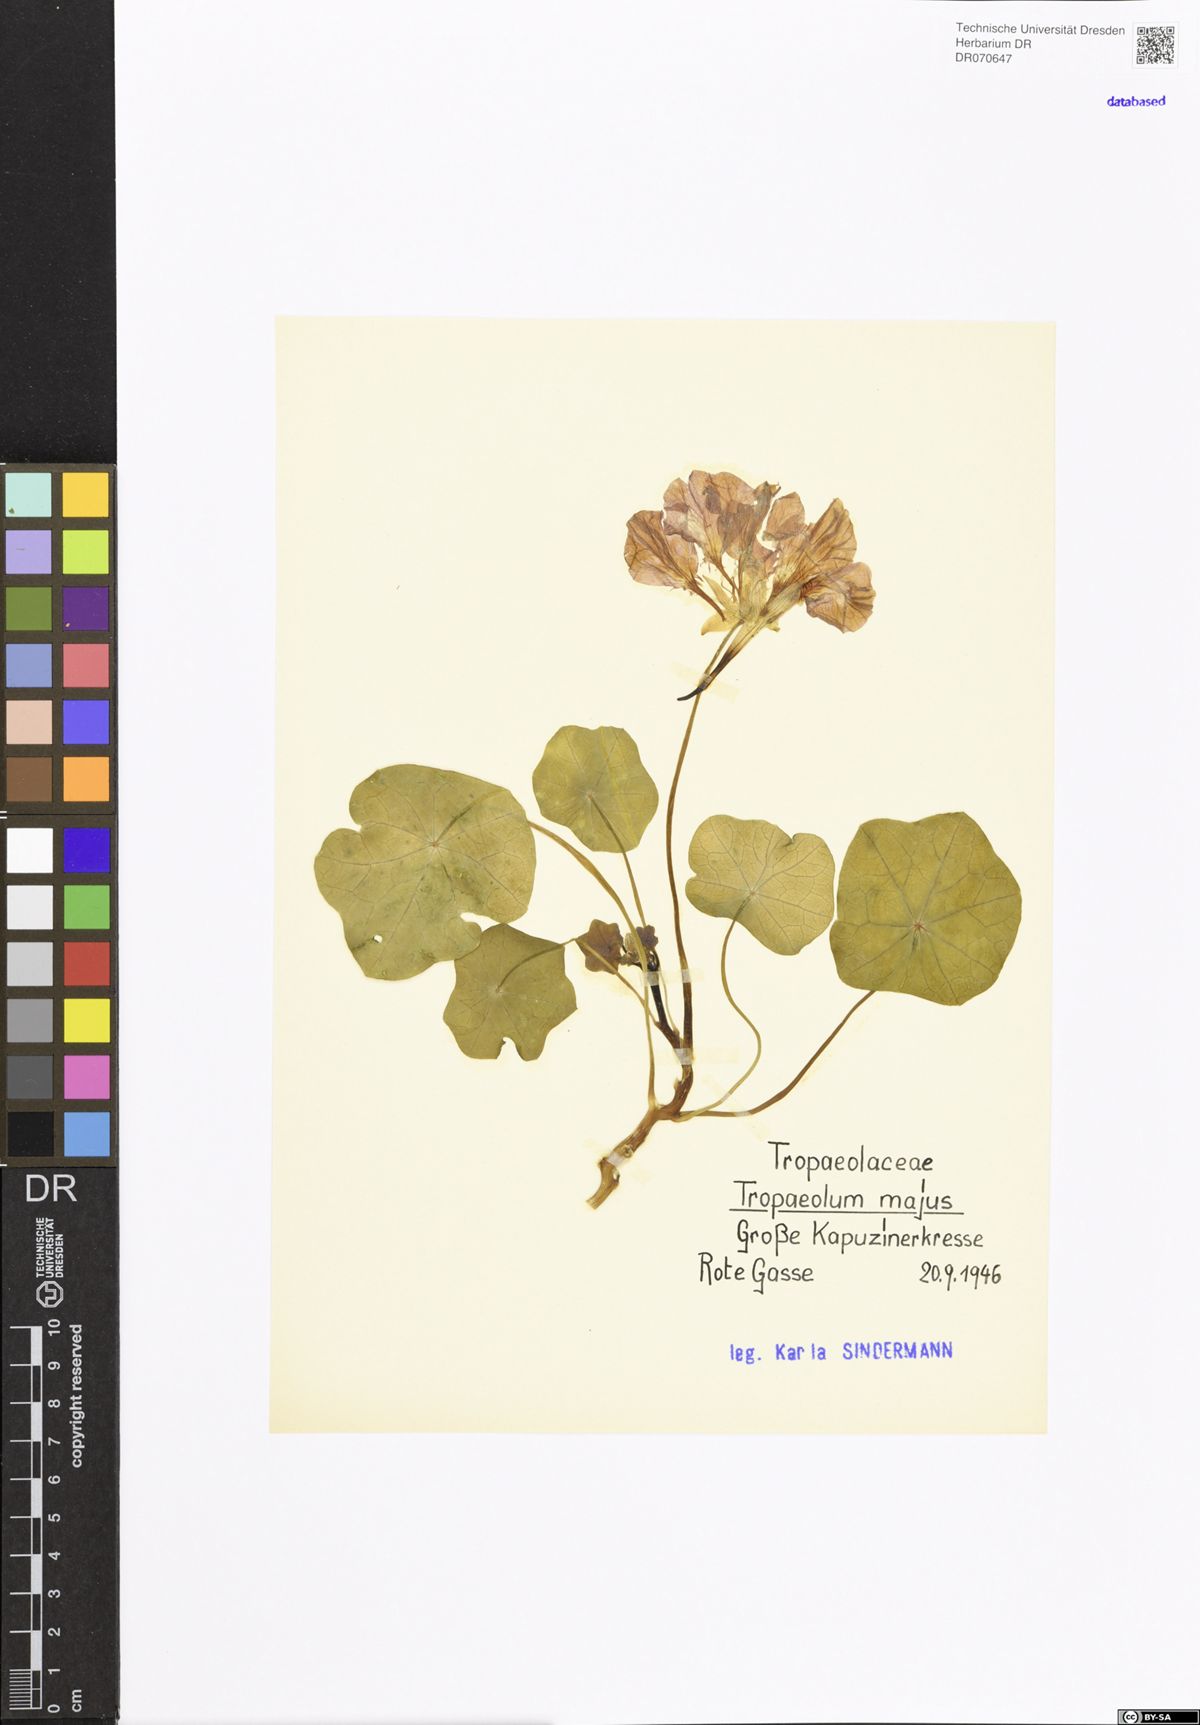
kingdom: Plantae
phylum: Tracheophyta
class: Magnoliopsida
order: Brassicales
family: Tropaeolaceae
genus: Tropaeolum
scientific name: Tropaeolum majus
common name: Nasturtium
